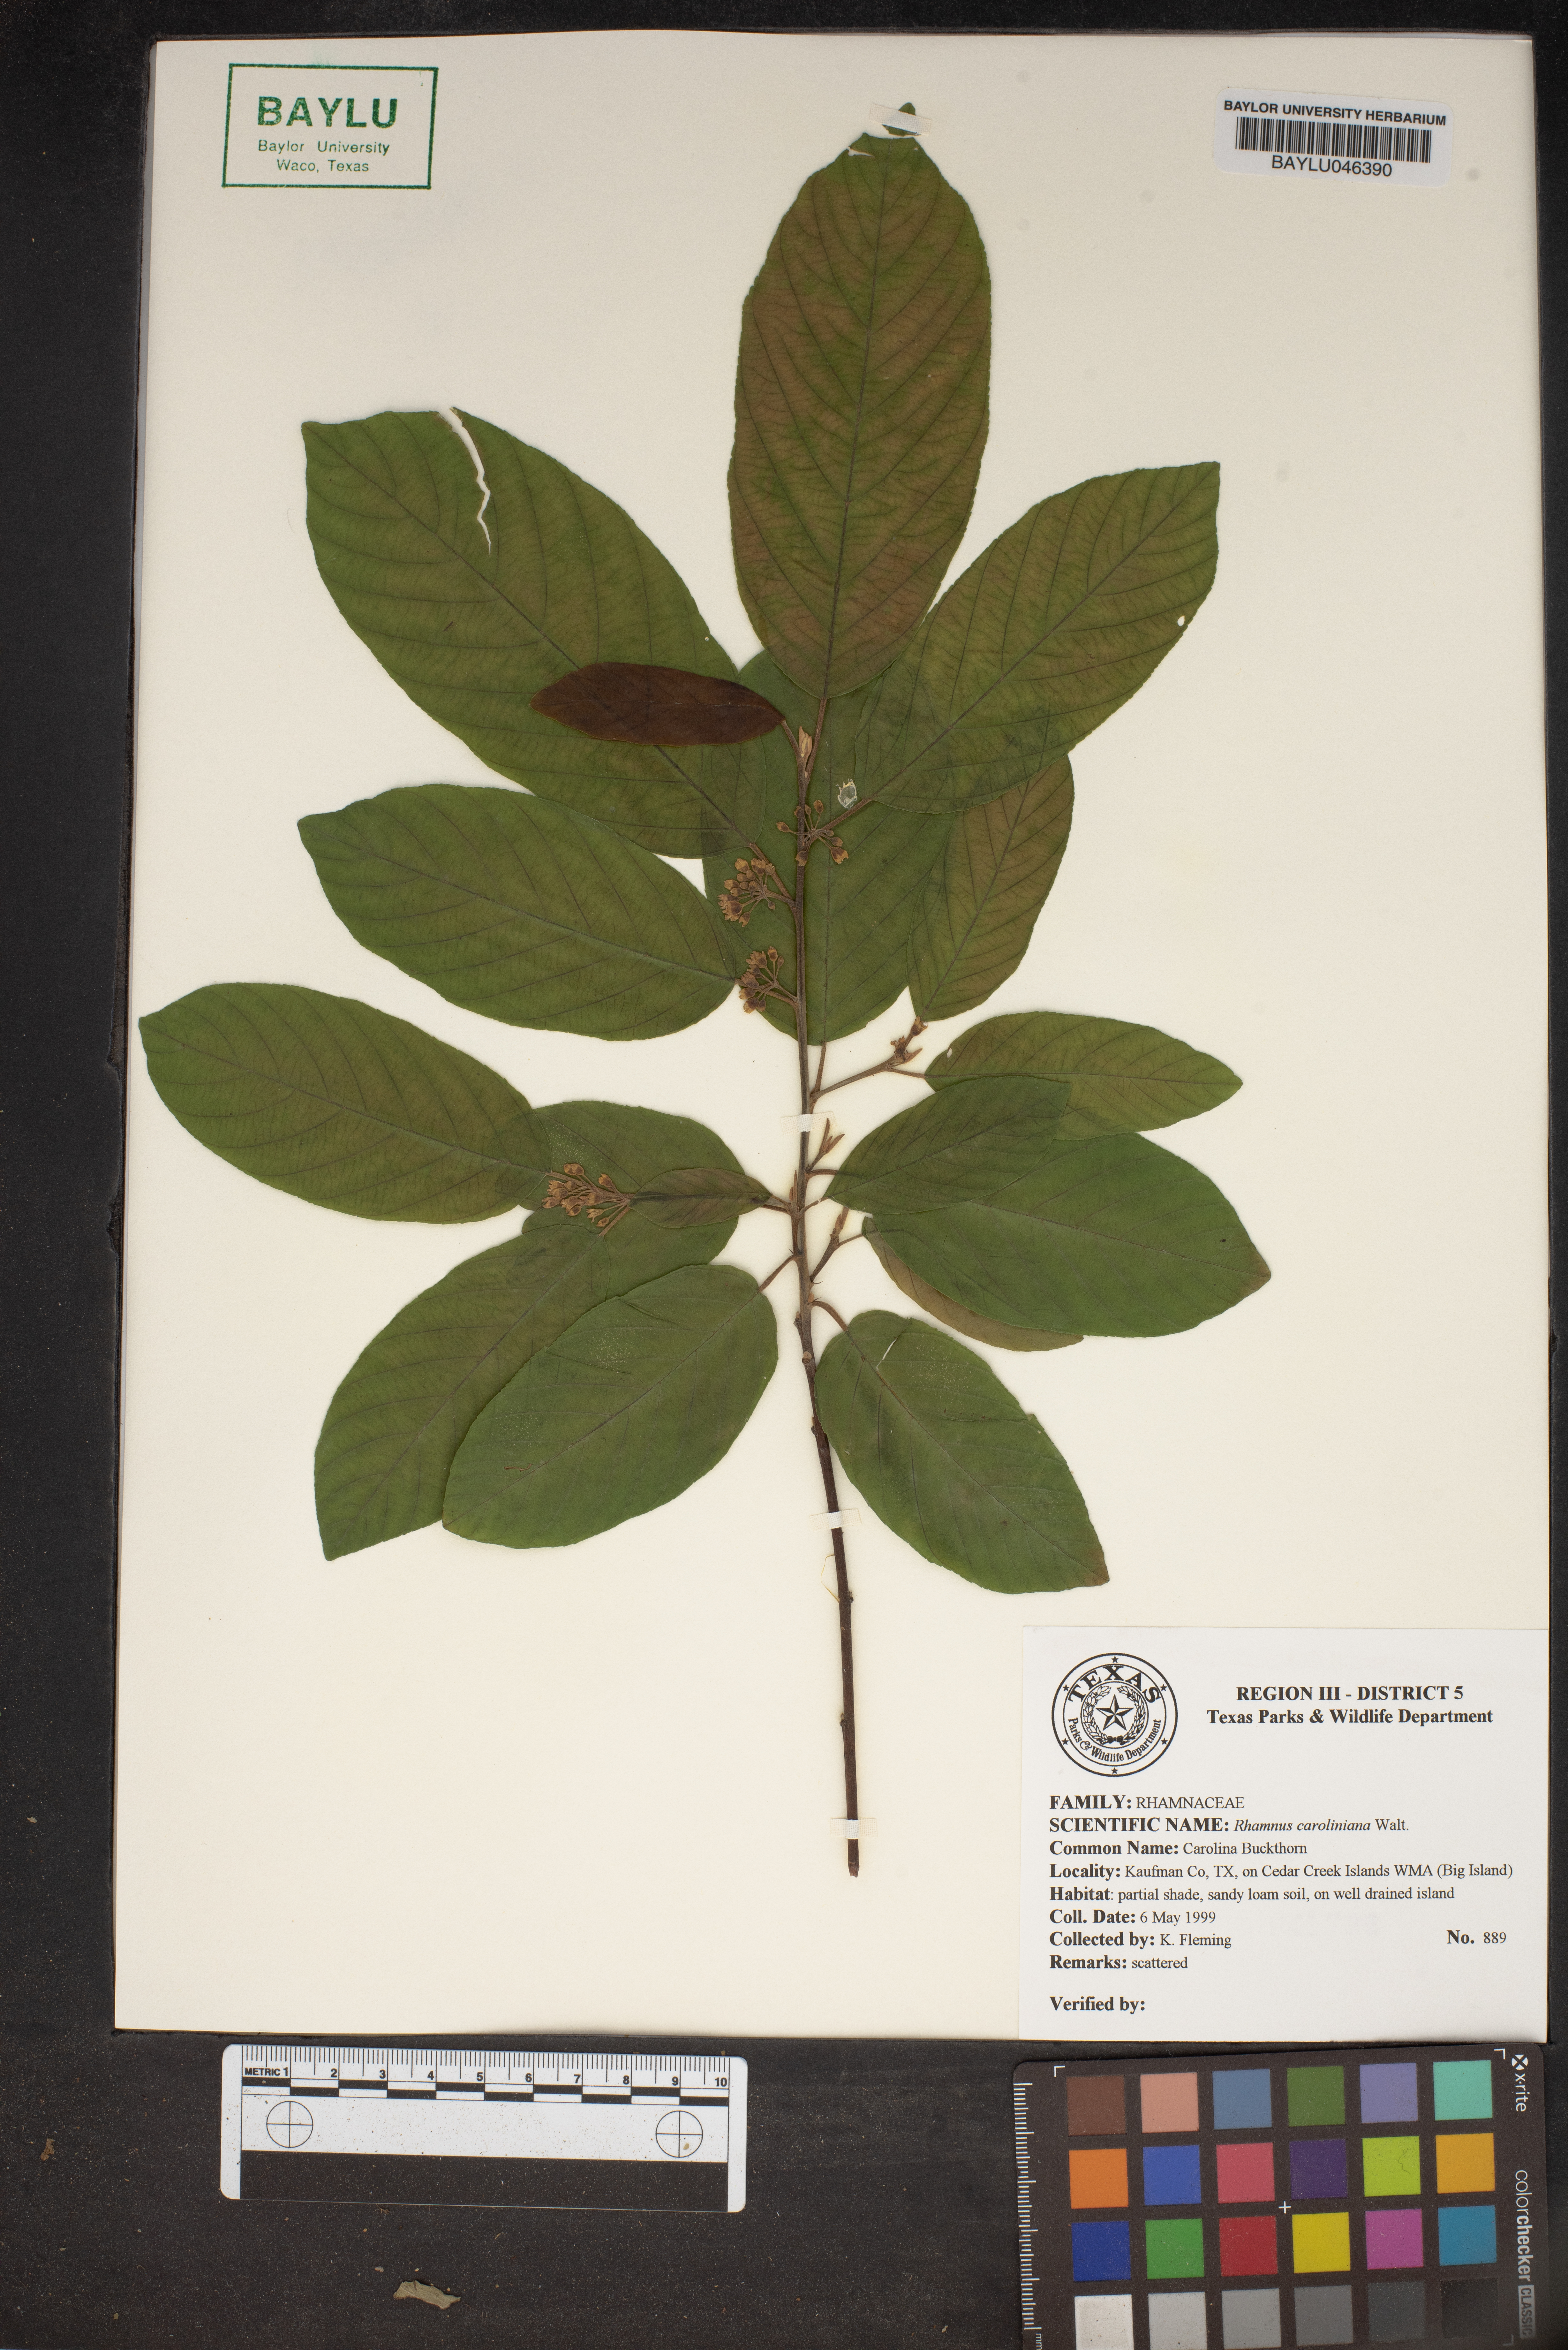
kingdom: Plantae
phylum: Tracheophyta
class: Magnoliopsida
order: Rosales
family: Rhamnaceae
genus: Frangula
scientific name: Frangula caroliniana
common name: Carolina buckthorn
